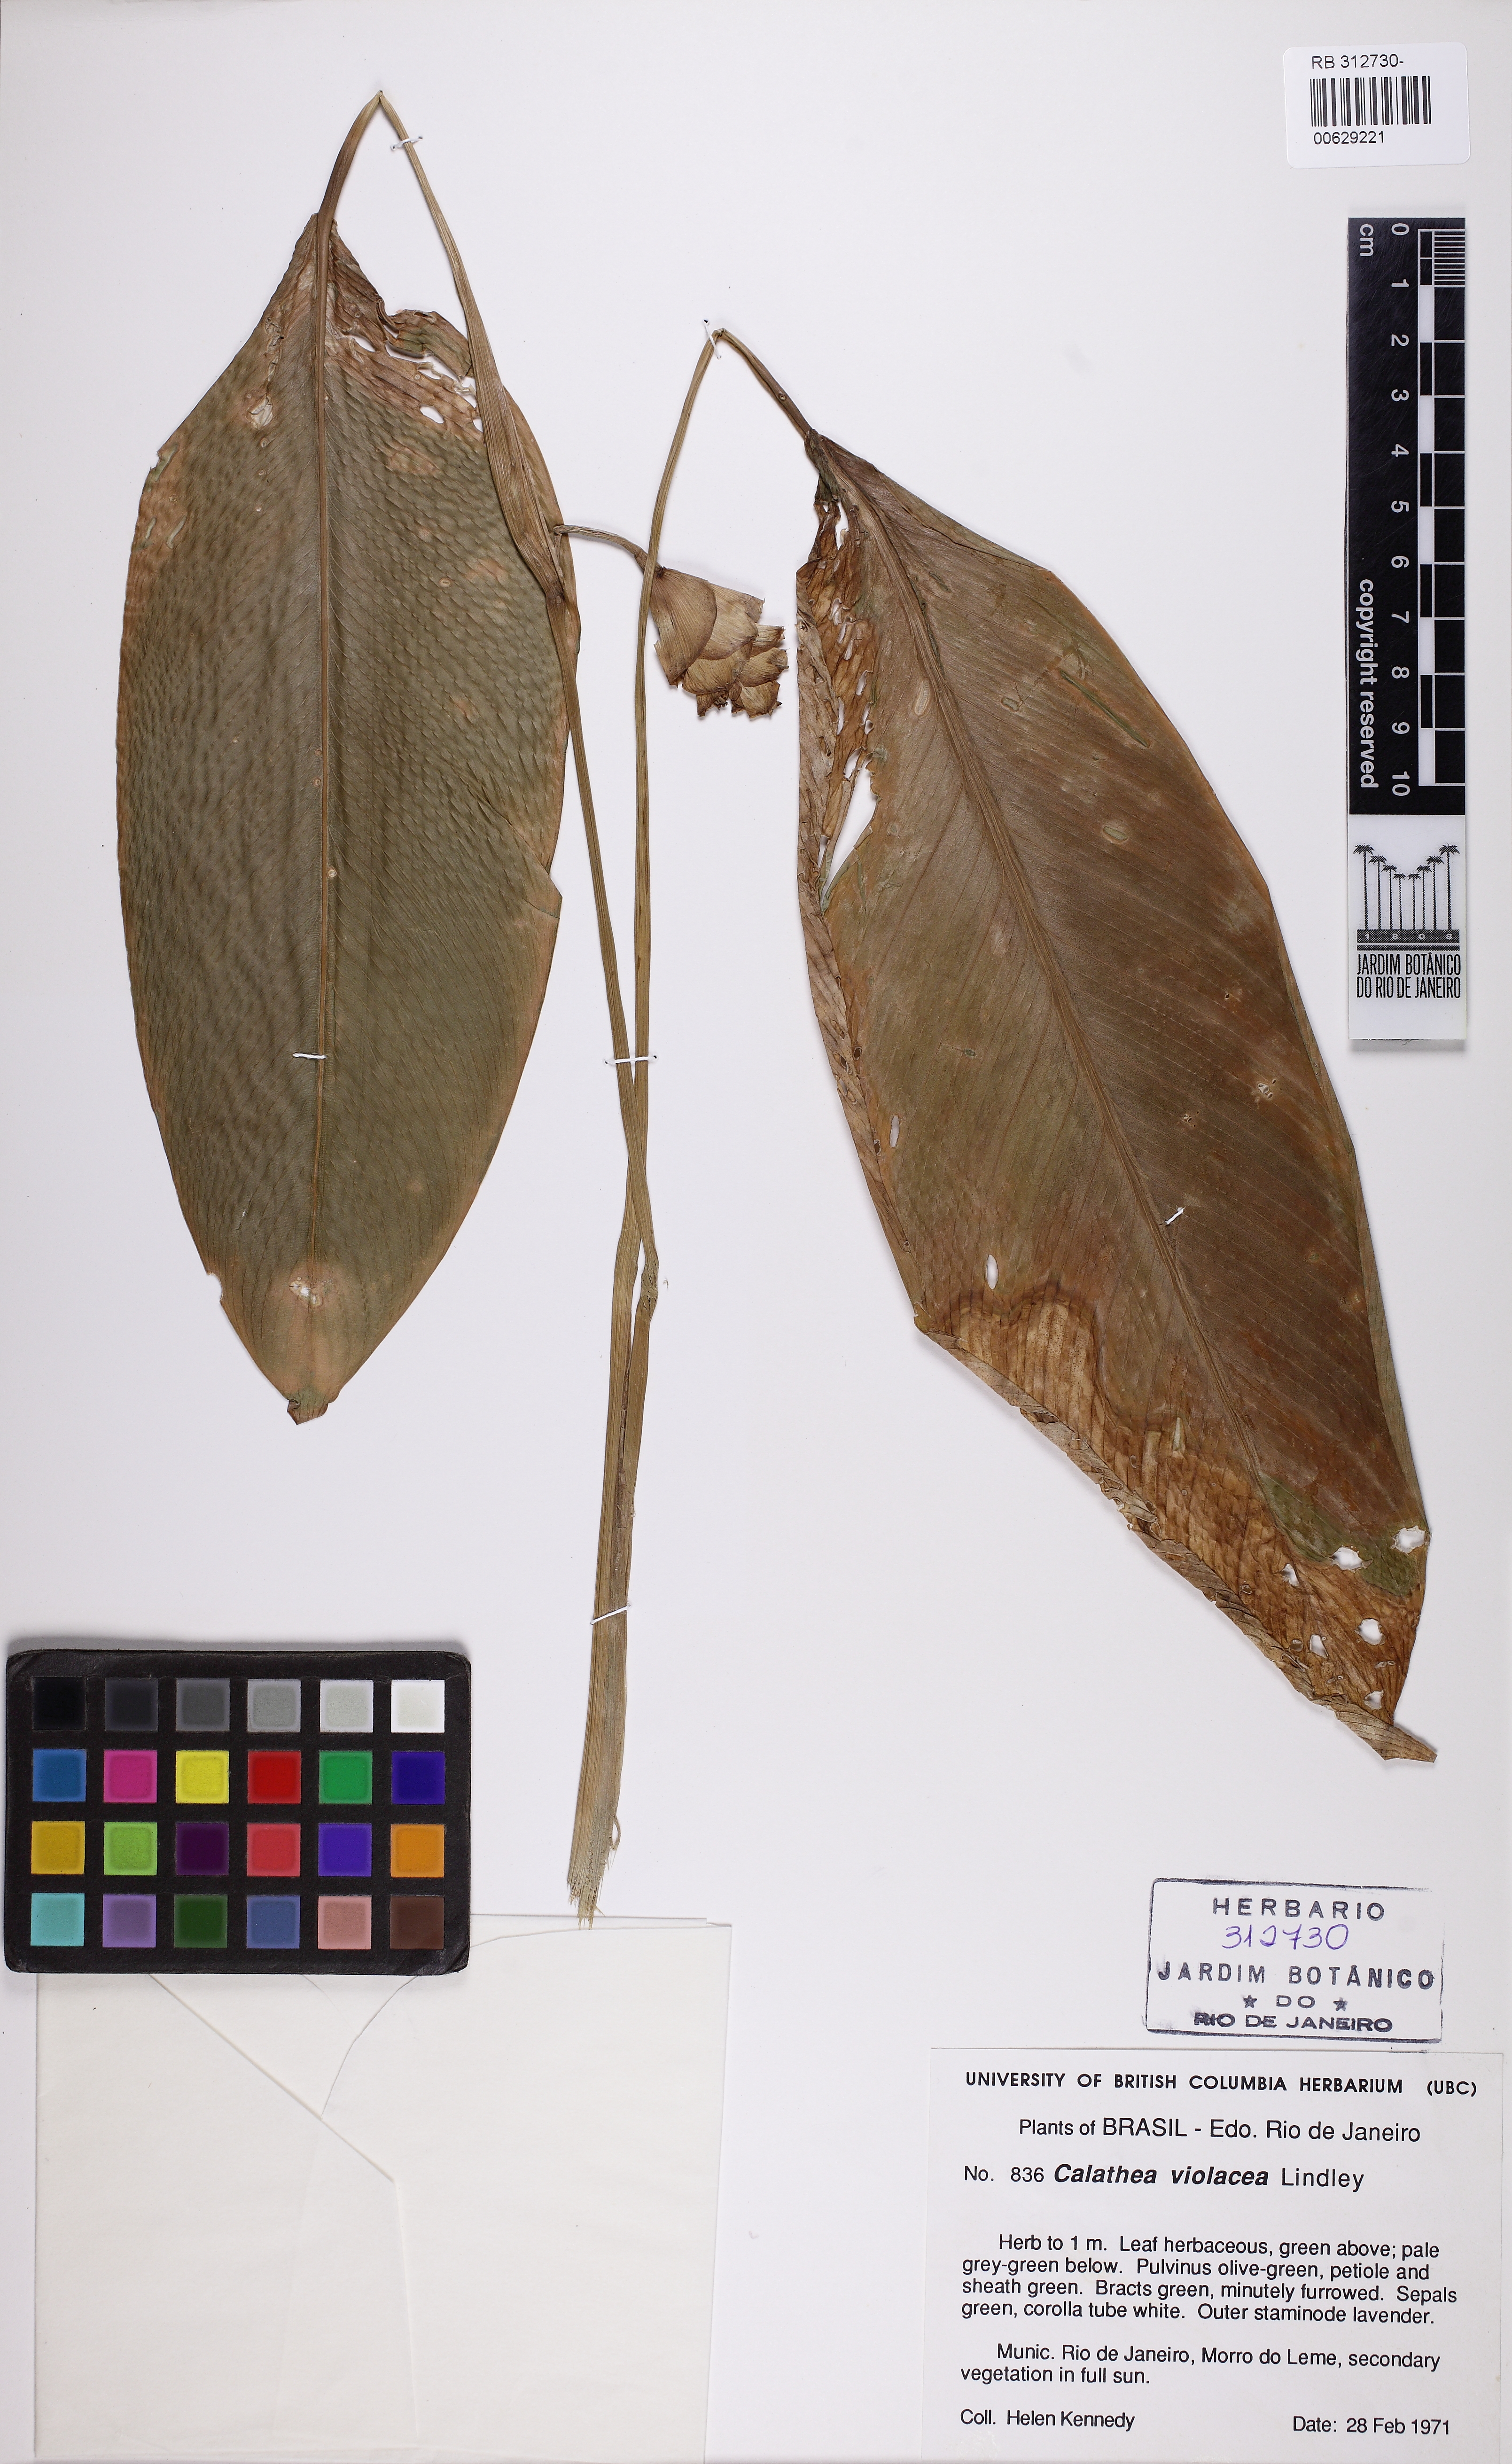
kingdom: Plantae
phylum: Tracheophyta
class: Liliopsida
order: Zingiberales
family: Marantaceae
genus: Goeppertia
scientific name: Goeppertia
